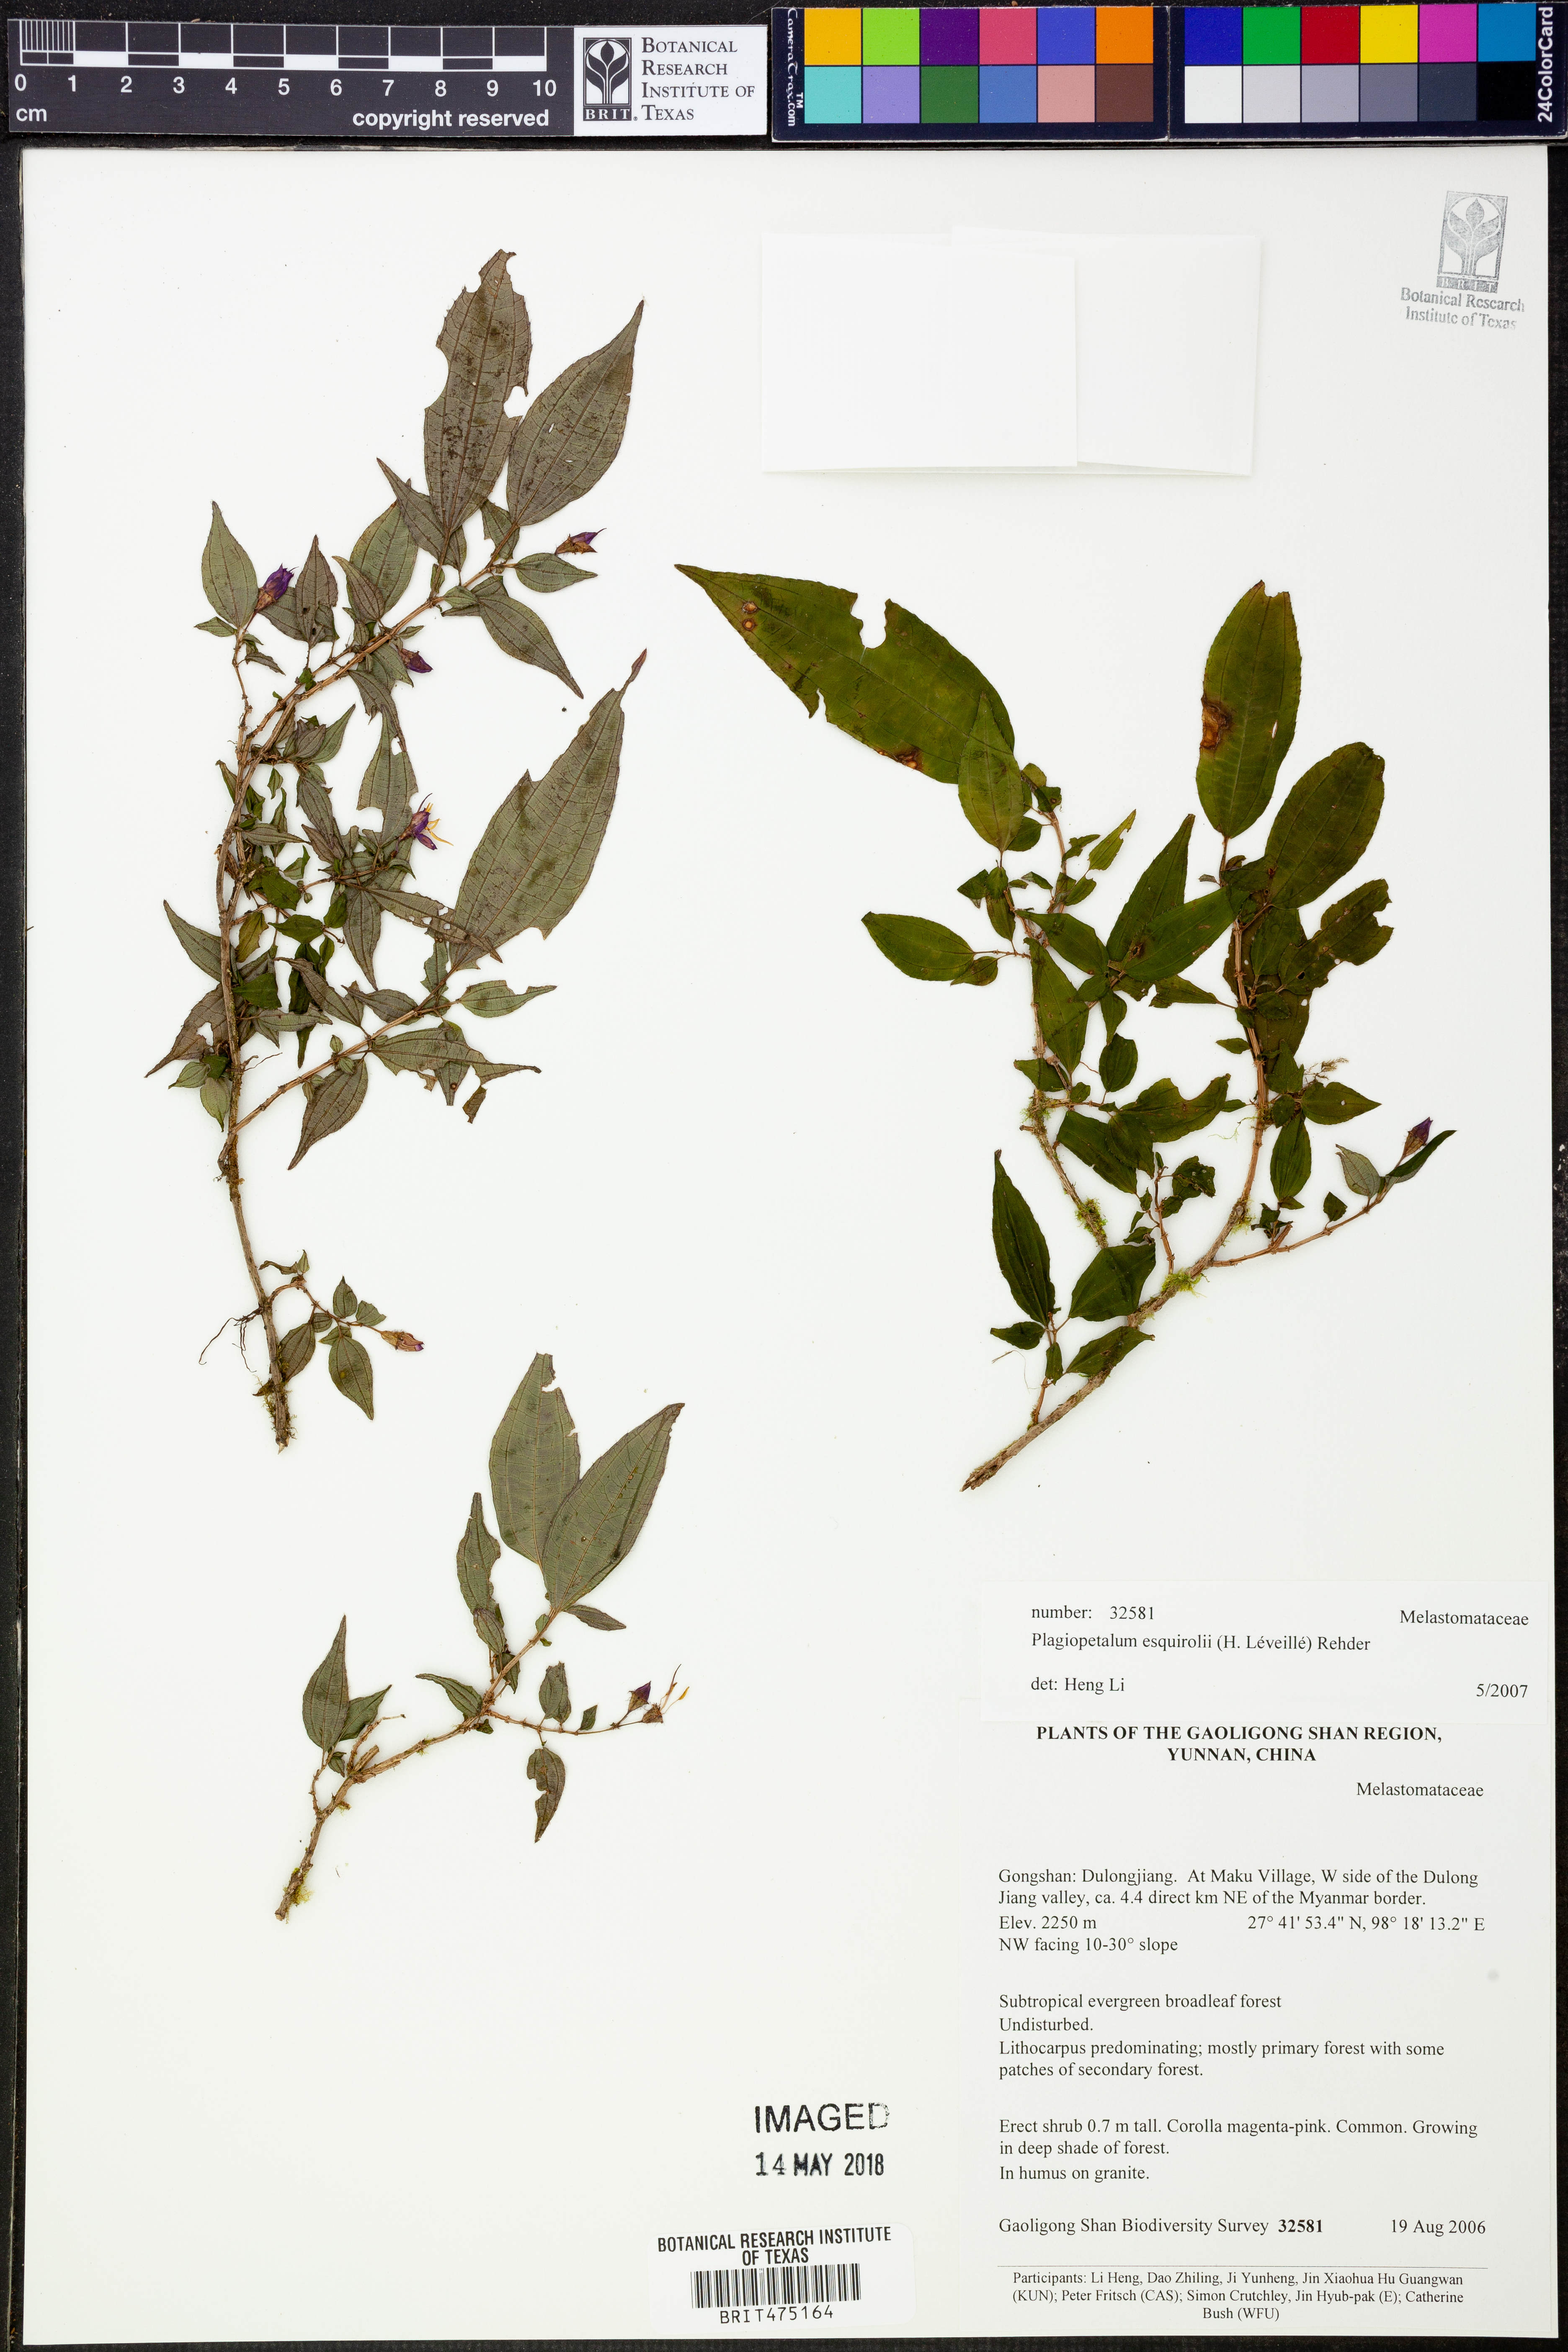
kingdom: Plantae
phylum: Tracheophyta
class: Magnoliopsida
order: Myrtales
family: Melastomataceae
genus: Plagiopetalum
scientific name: Plagiopetalum esquirolii
